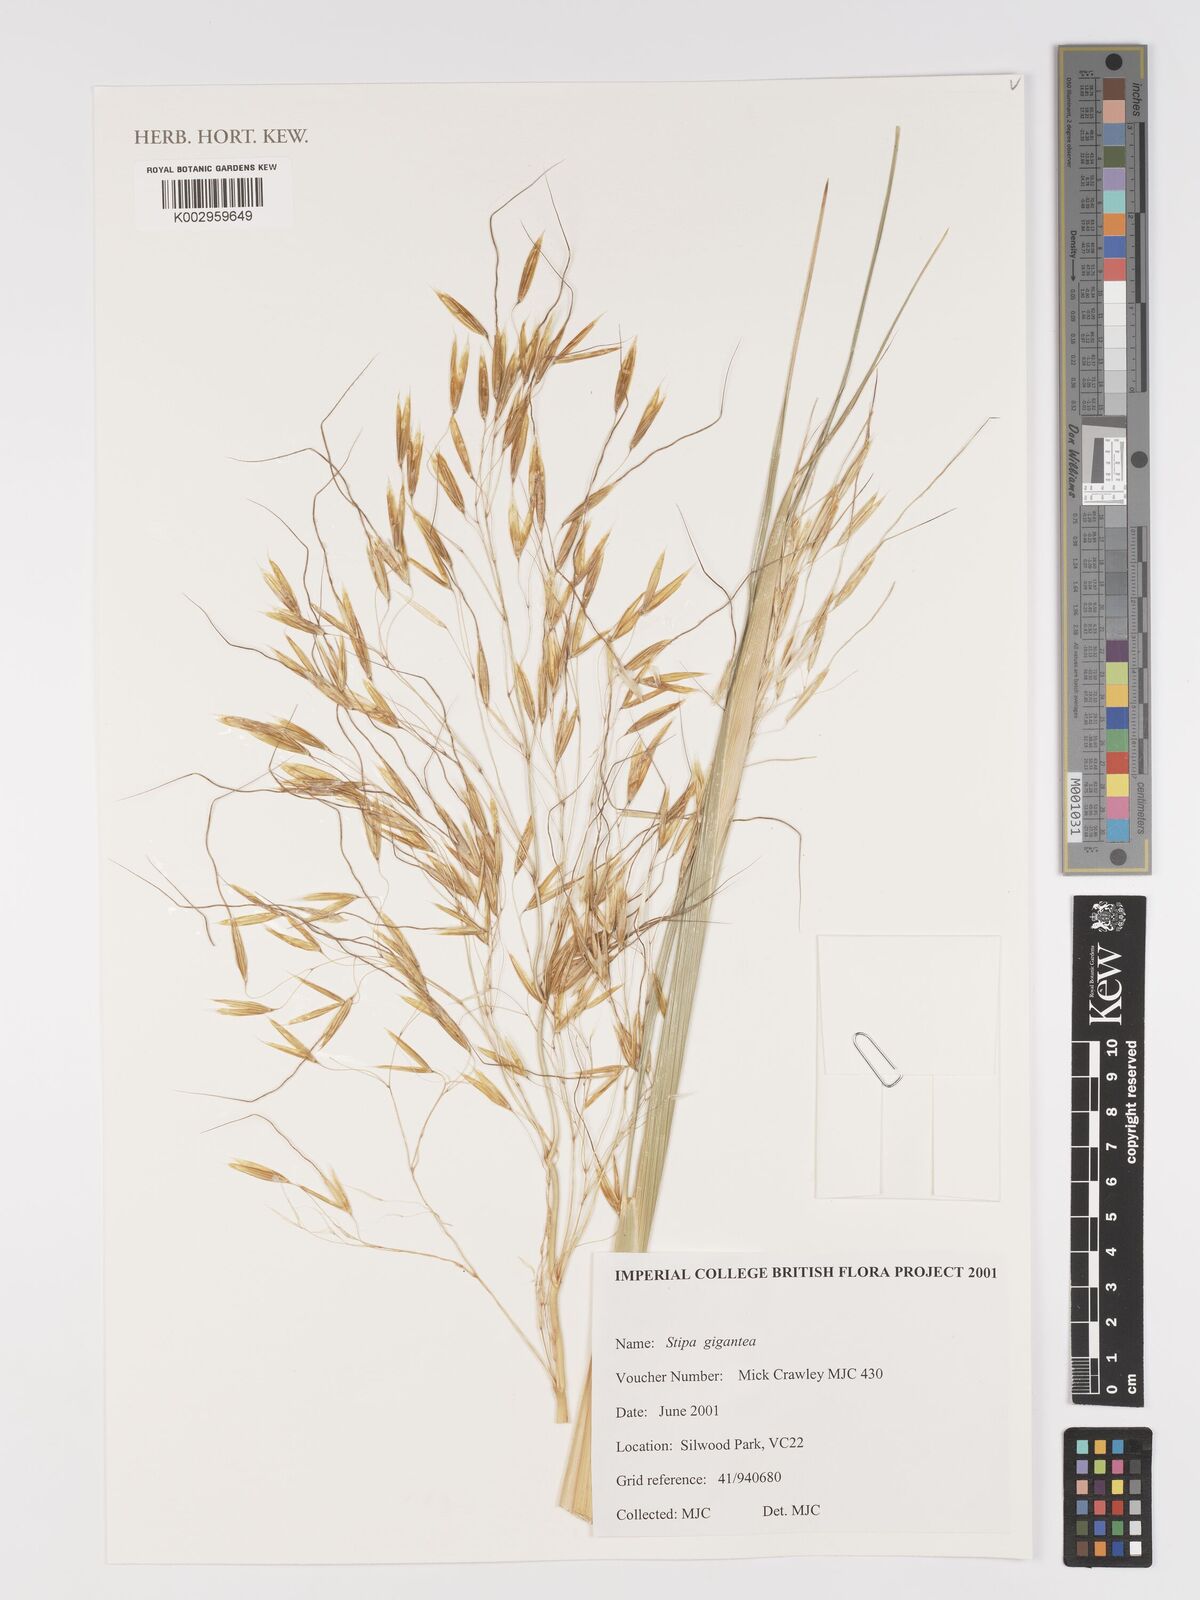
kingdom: Plantae
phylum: Tracheophyta
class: Liliopsida
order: Poales
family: Poaceae
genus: Celtica
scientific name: Celtica gigantea
